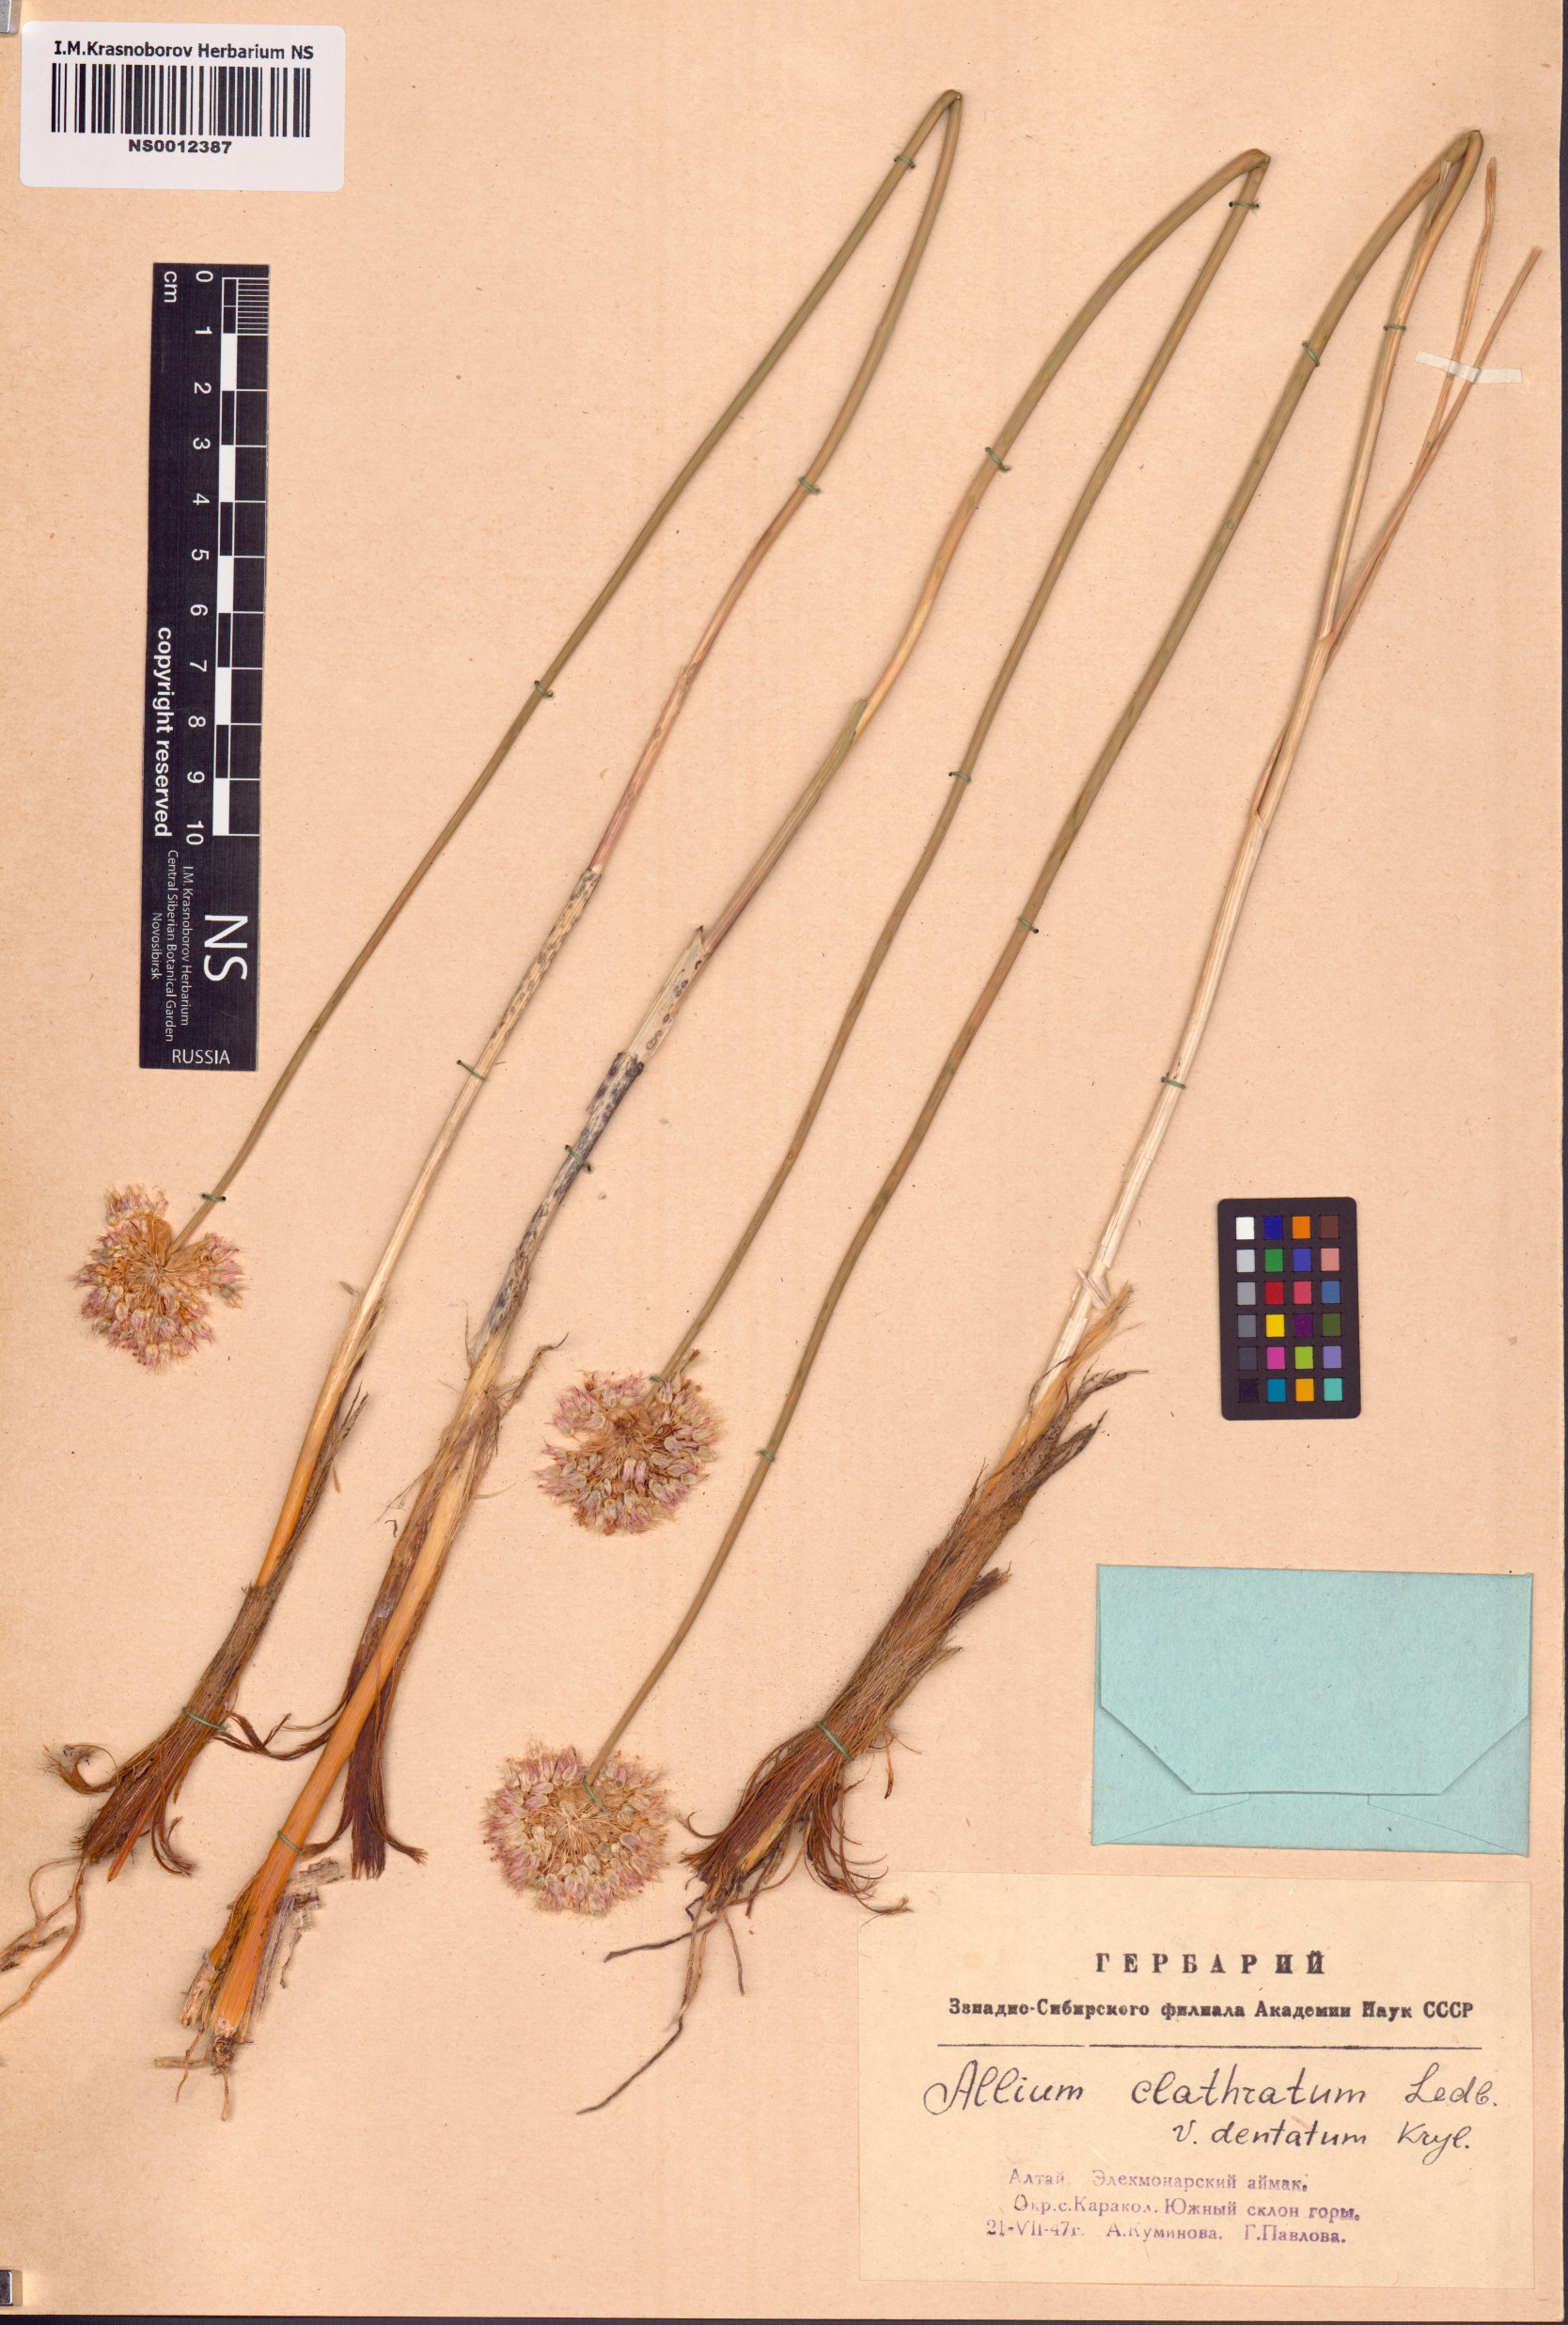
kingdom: Plantae
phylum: Tracheophyta
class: Liliopsida
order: Asparagales
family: Amaryllidaceae
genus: Allium
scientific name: Allium clathratum
